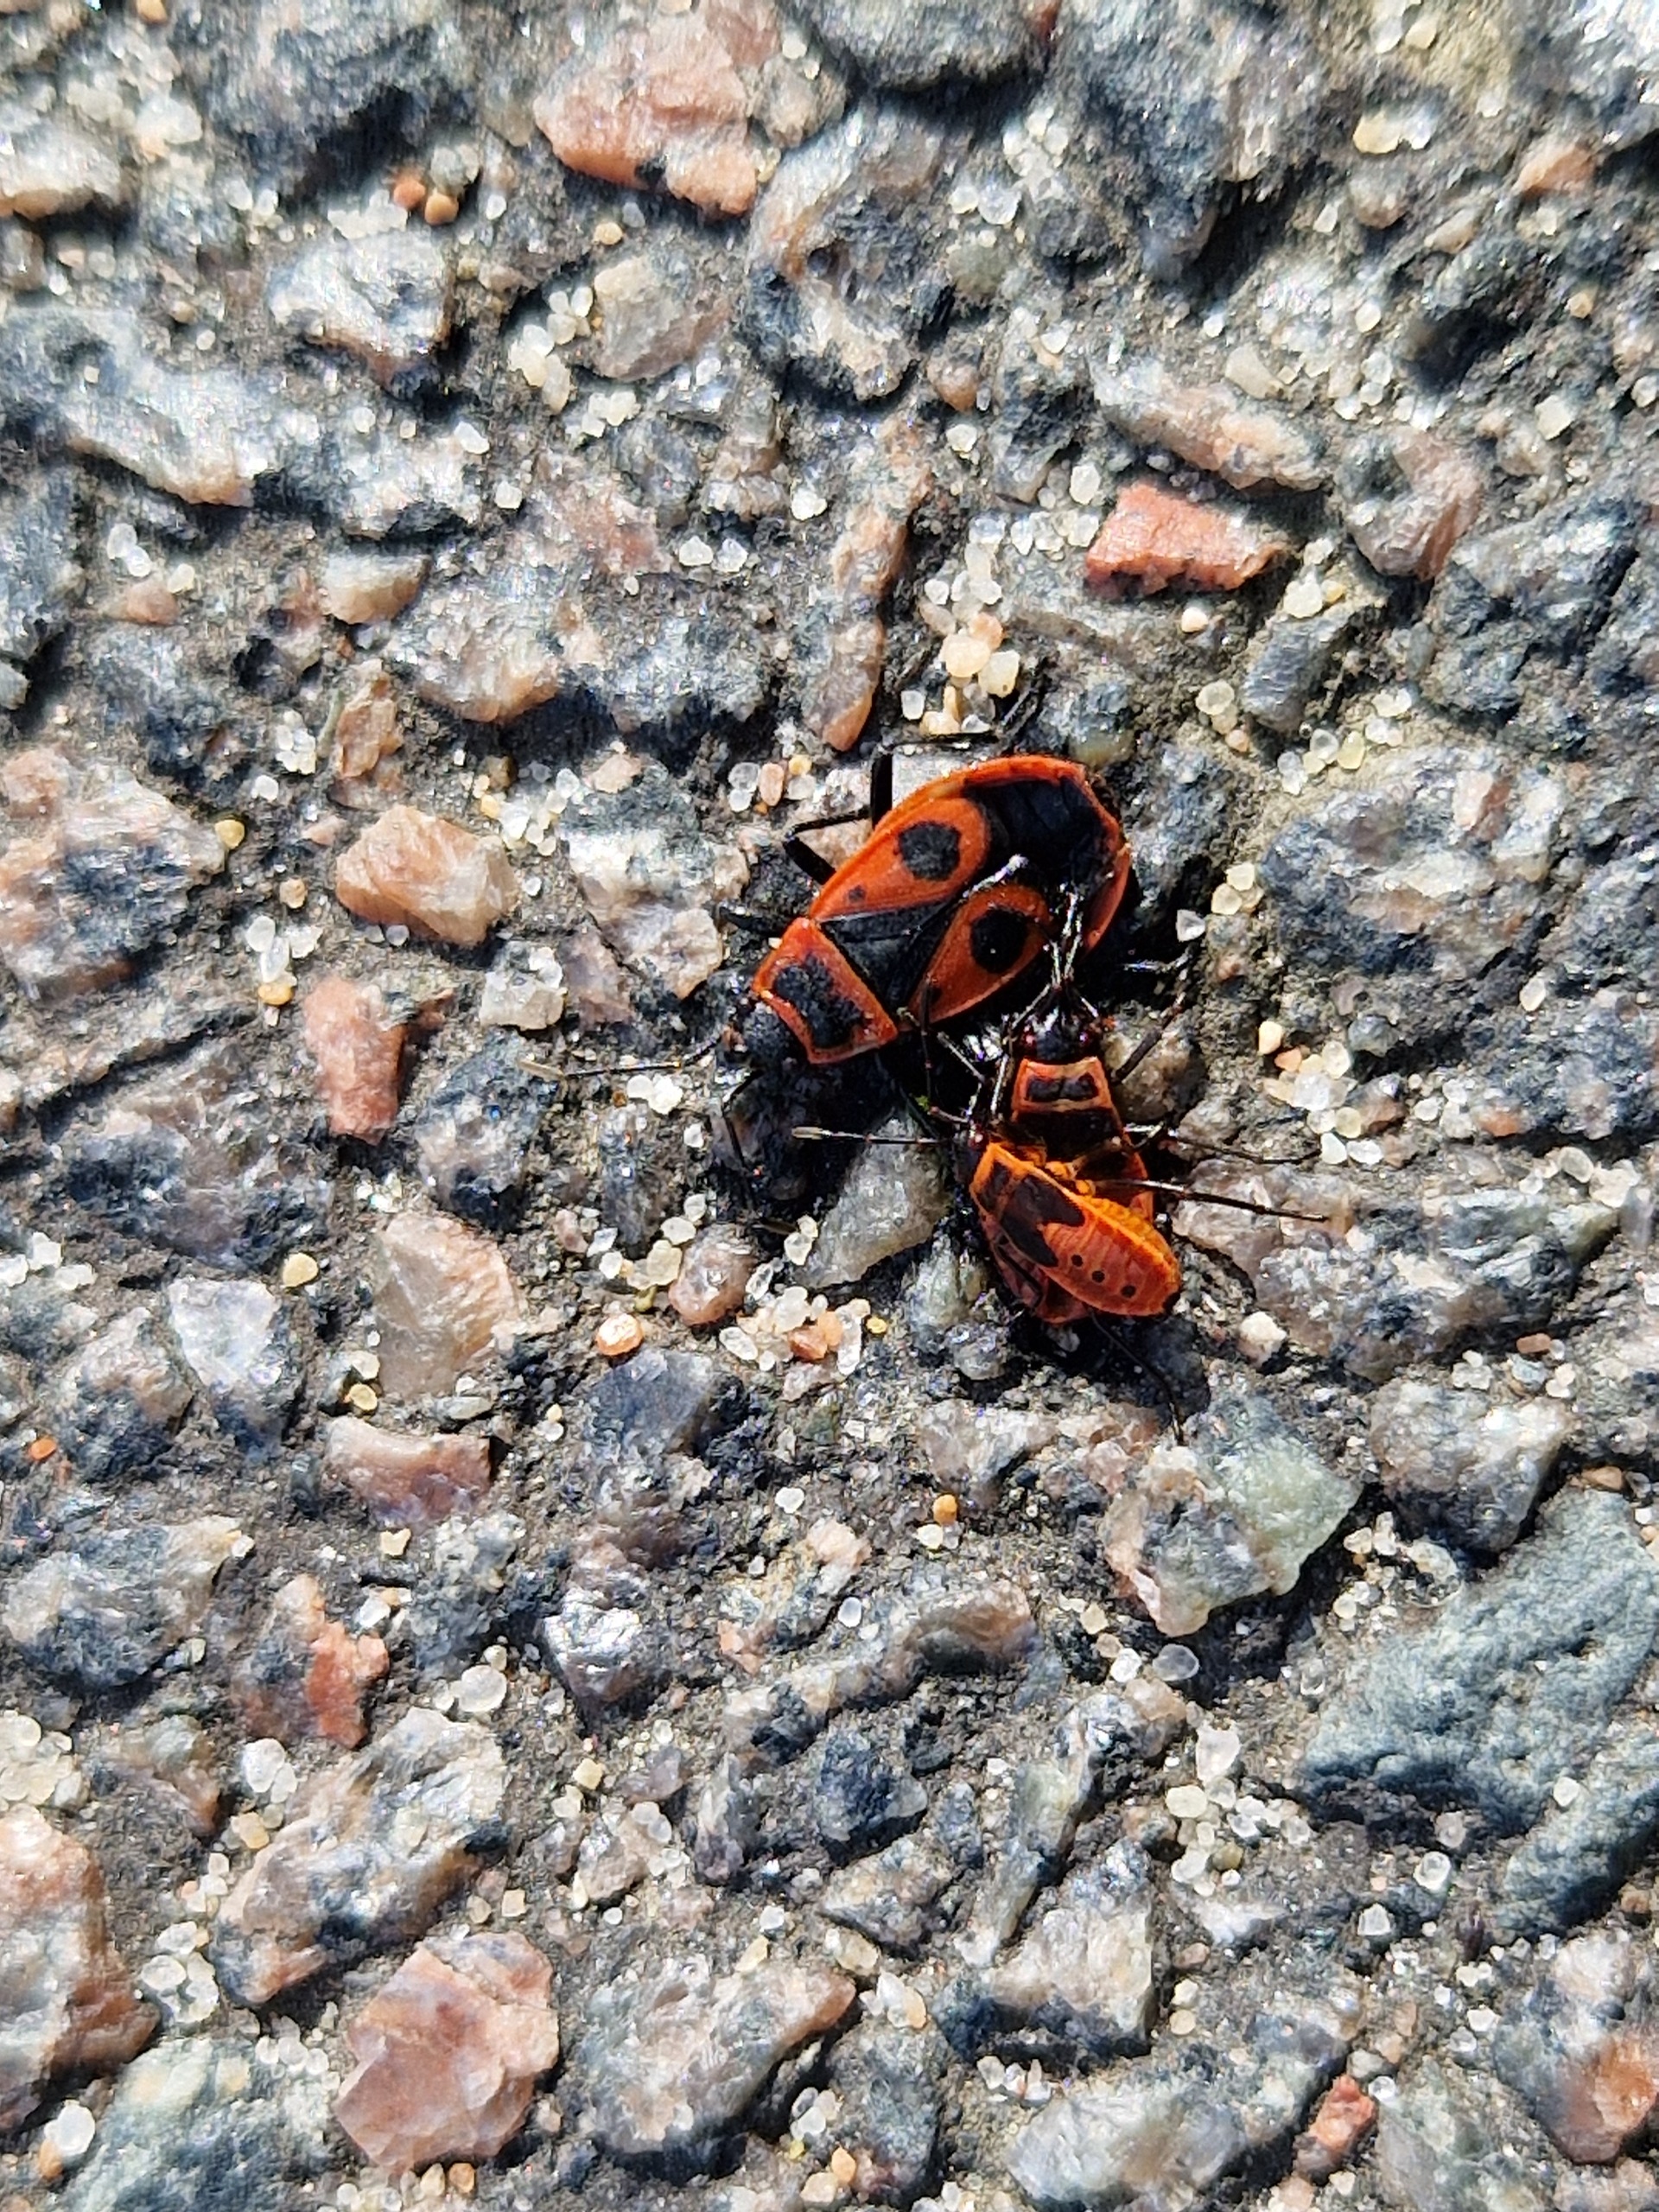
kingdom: Animalia
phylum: Arthropoda
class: Insecta
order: Hemiptera
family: Pyrrhocoridae
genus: Pyrrhocoris
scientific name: Pyrrhocoris apterus
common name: Ildtæge
